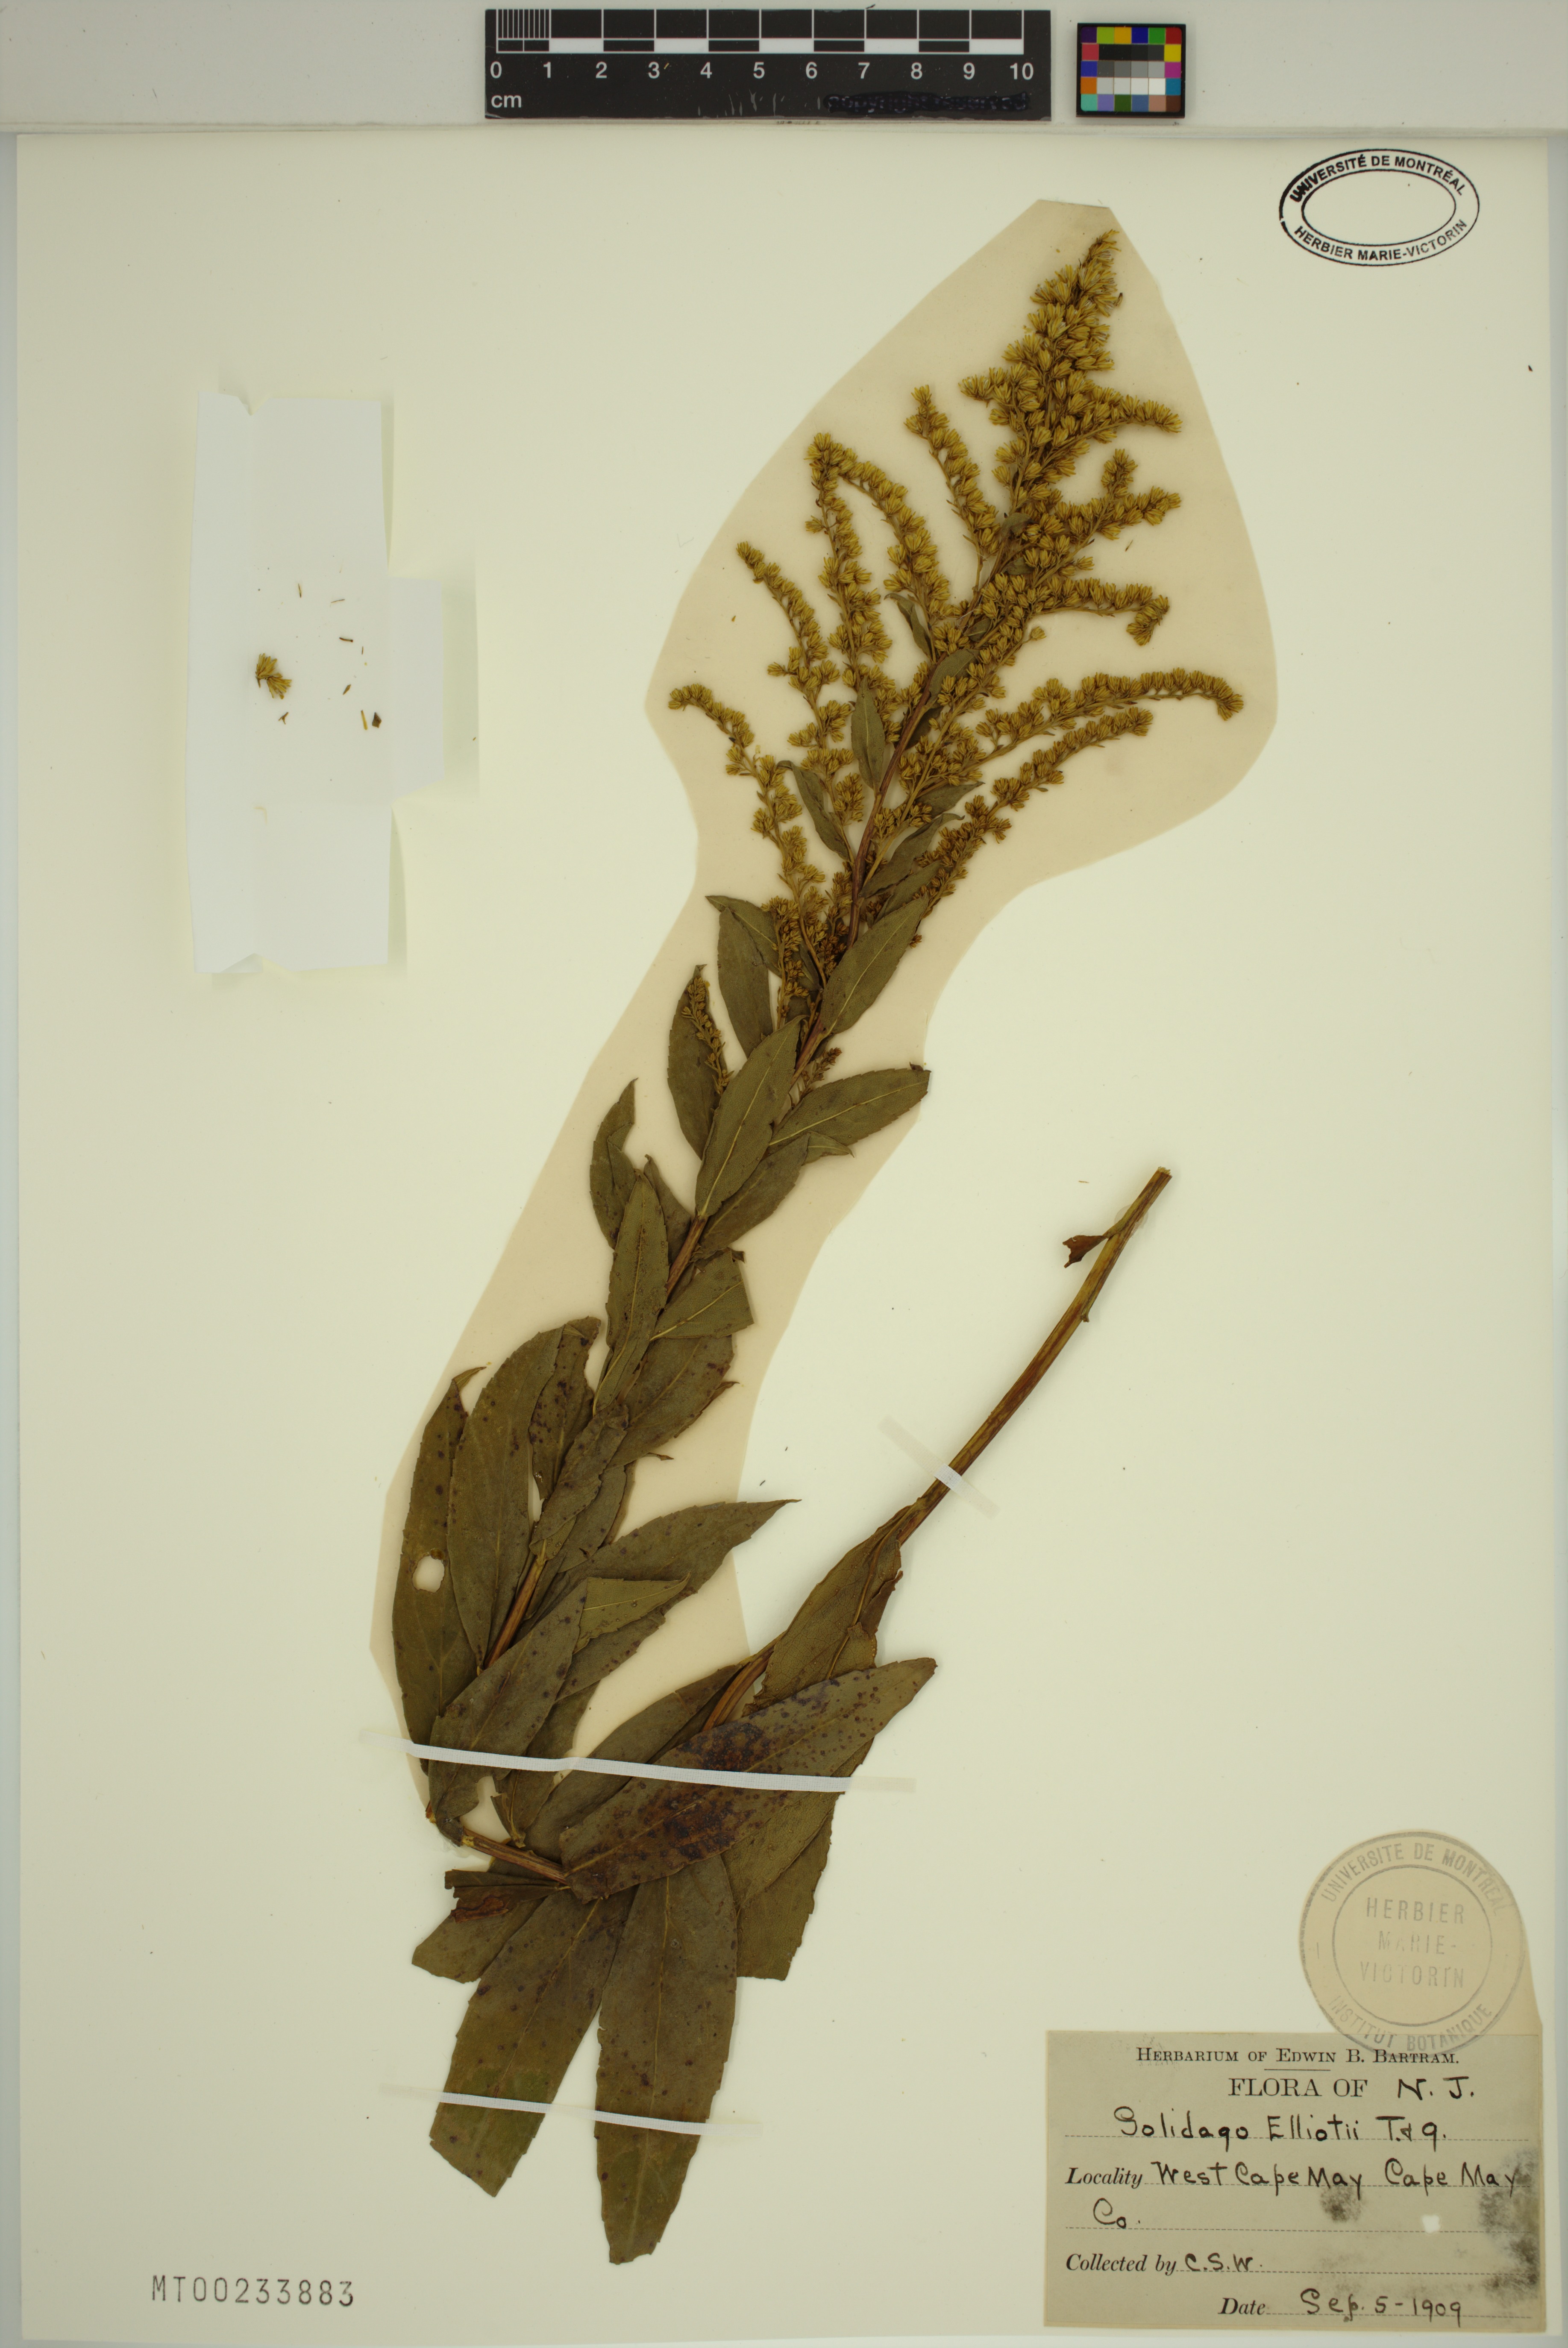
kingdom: Plantae
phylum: Tracheophyta
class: Magnoliopsida
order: Asterales
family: Asteraceae
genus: Solidago
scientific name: Solidago latissimifolia
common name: Elliott's goldenrod
